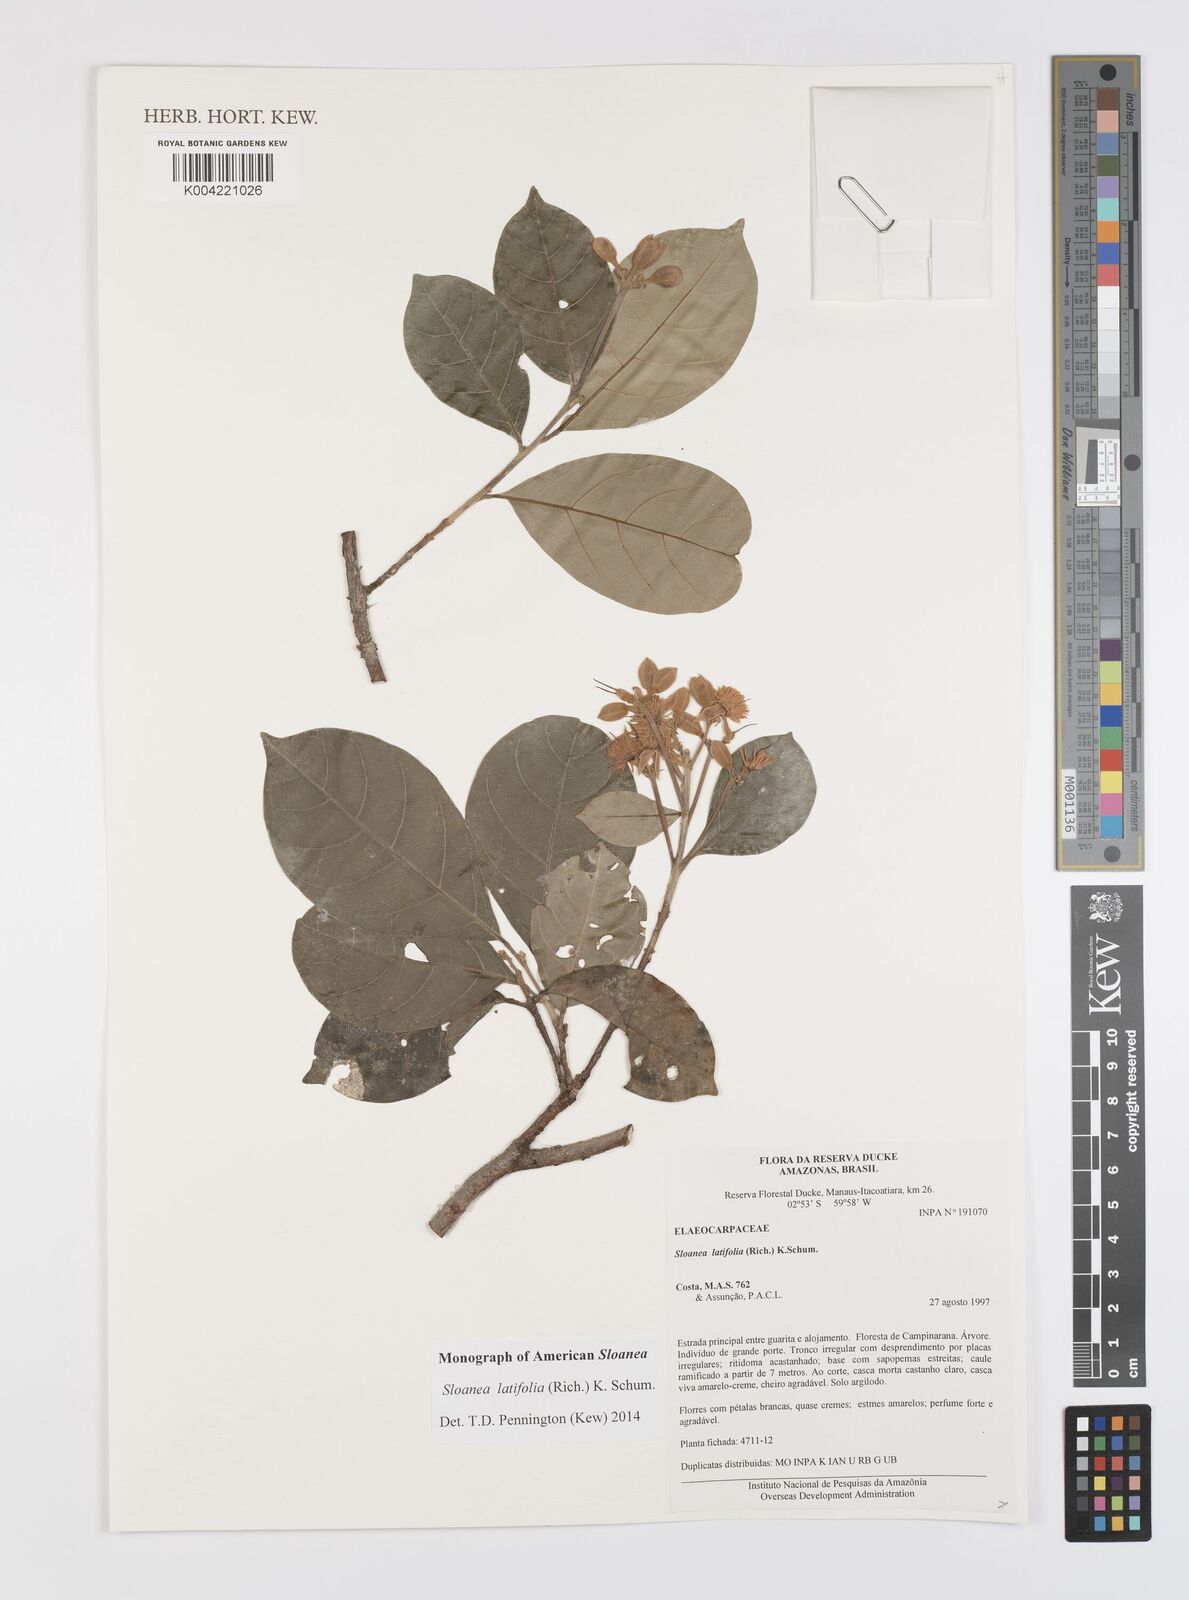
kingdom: Plantae
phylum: Tracheophyta
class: Magnoliopsida
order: Oxalidales
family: Elaeocarpaceae
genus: Sloanea
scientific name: Sloanea latifolia
